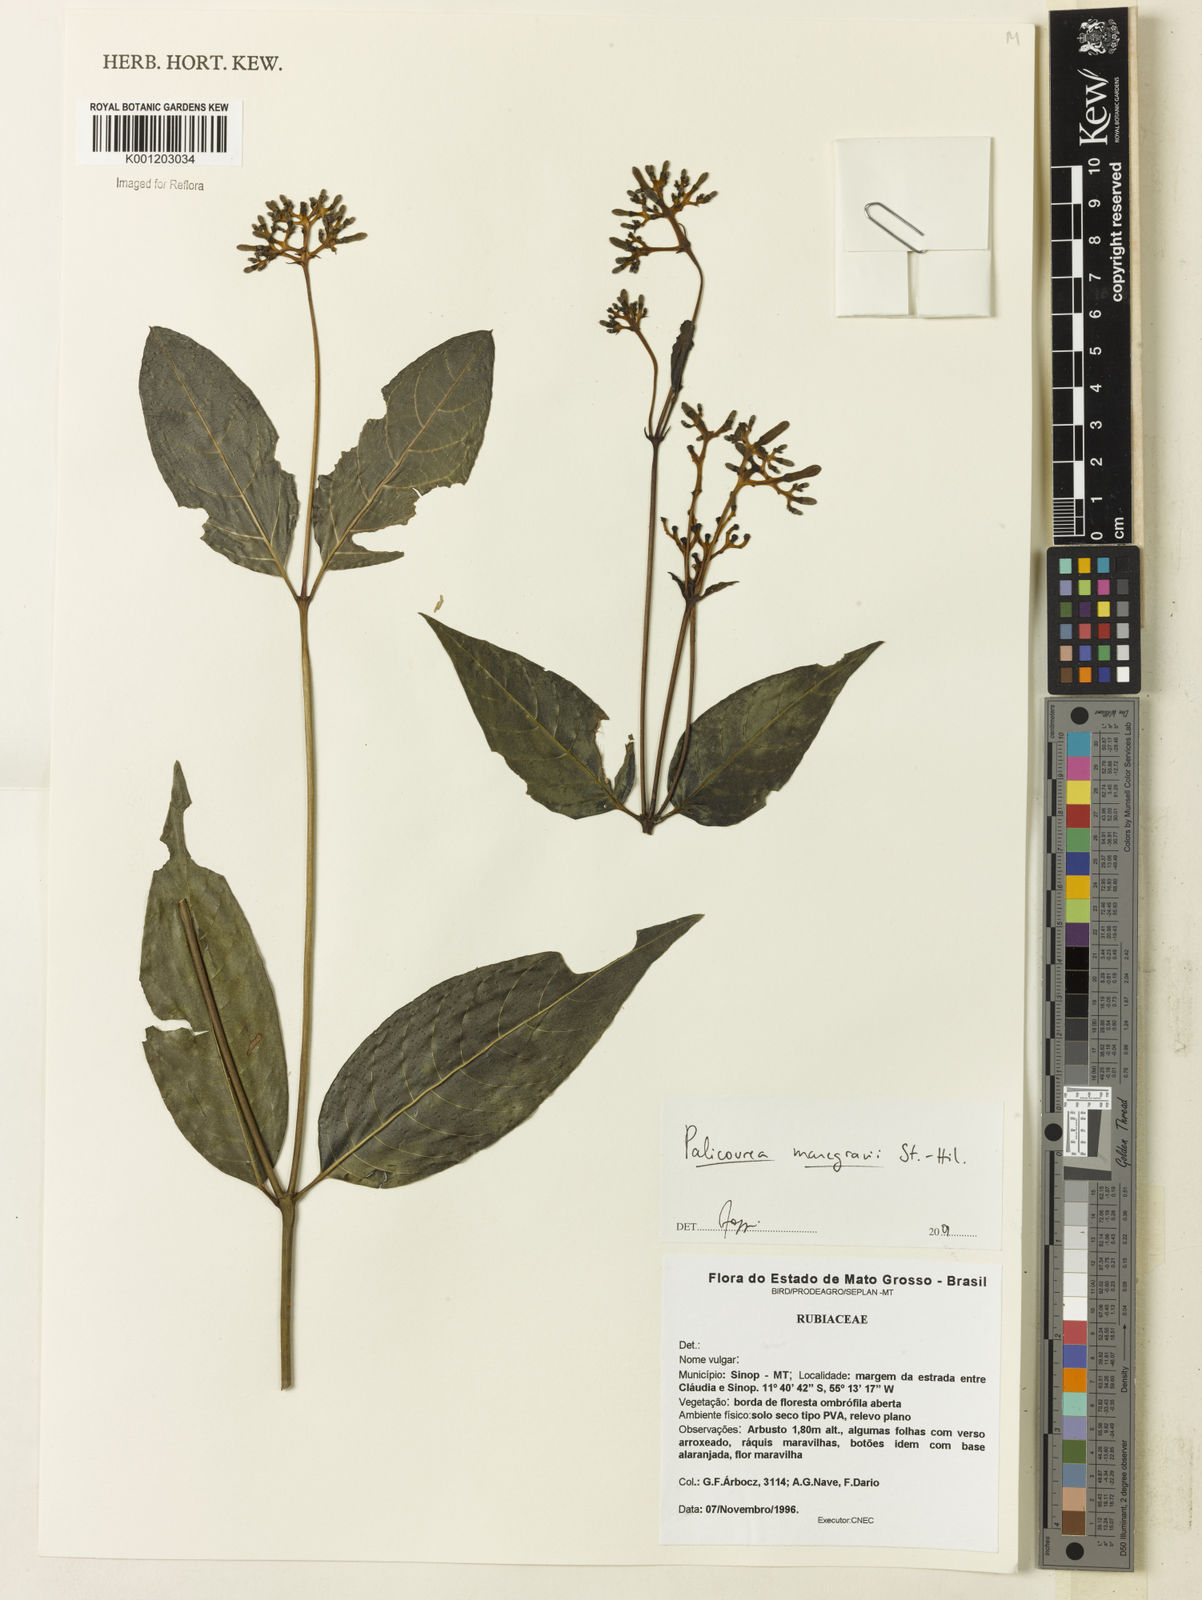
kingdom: Plantae
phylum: Tracheophyta
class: Magnoliopsida
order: Gentianales
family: Rubiaceae
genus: Palicourea
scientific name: Palicourea marcgravii
